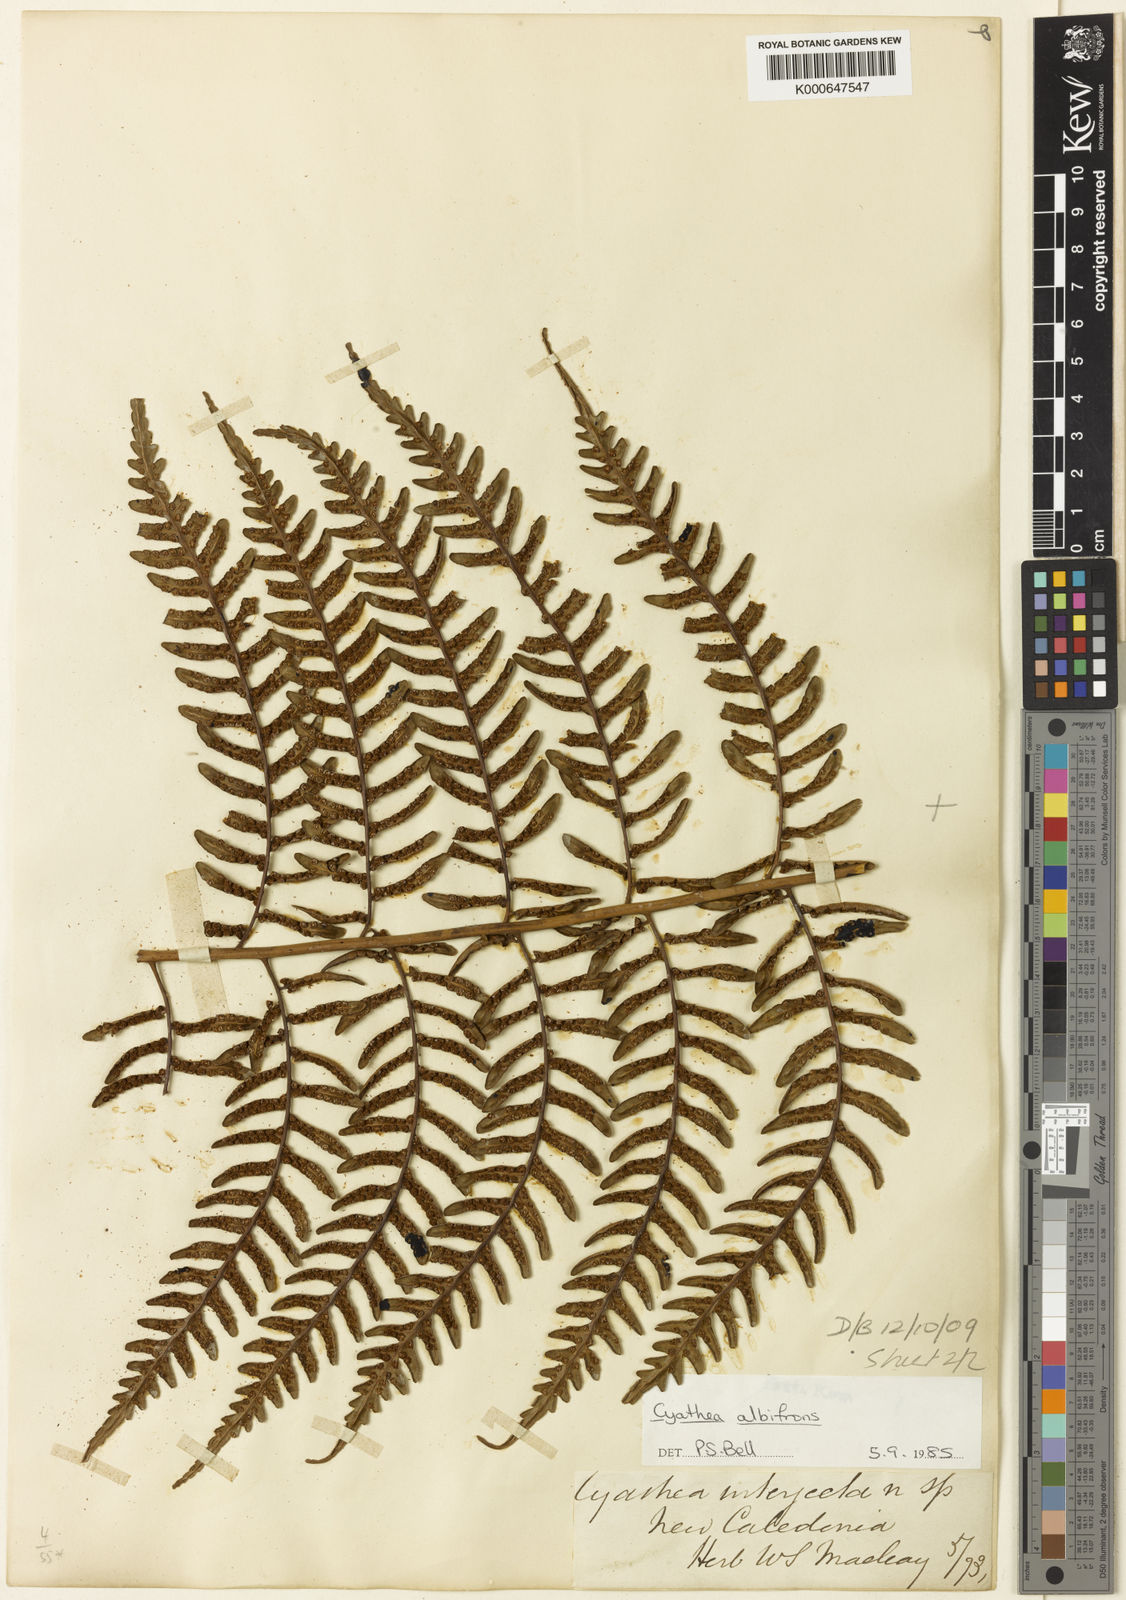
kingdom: Plantae
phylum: Tracheophyta
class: Polypodiopsida
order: Cyatheales
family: Cyatheaceae
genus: Cyathea
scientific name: Cyathea
